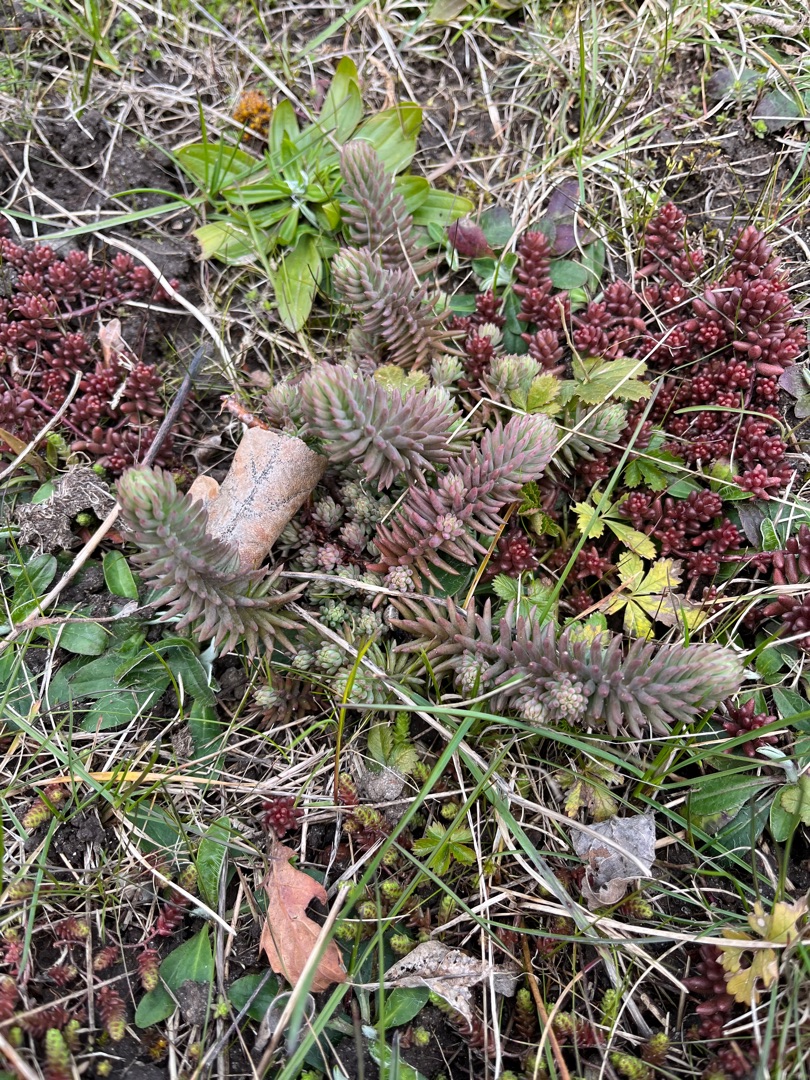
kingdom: Plantae
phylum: Tracheophyta
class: Magnoliopsida
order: Saxifragales
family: Crassulaceae
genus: Petrosedum
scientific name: Petrosedum rupestre
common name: Bjerg-stenurt
